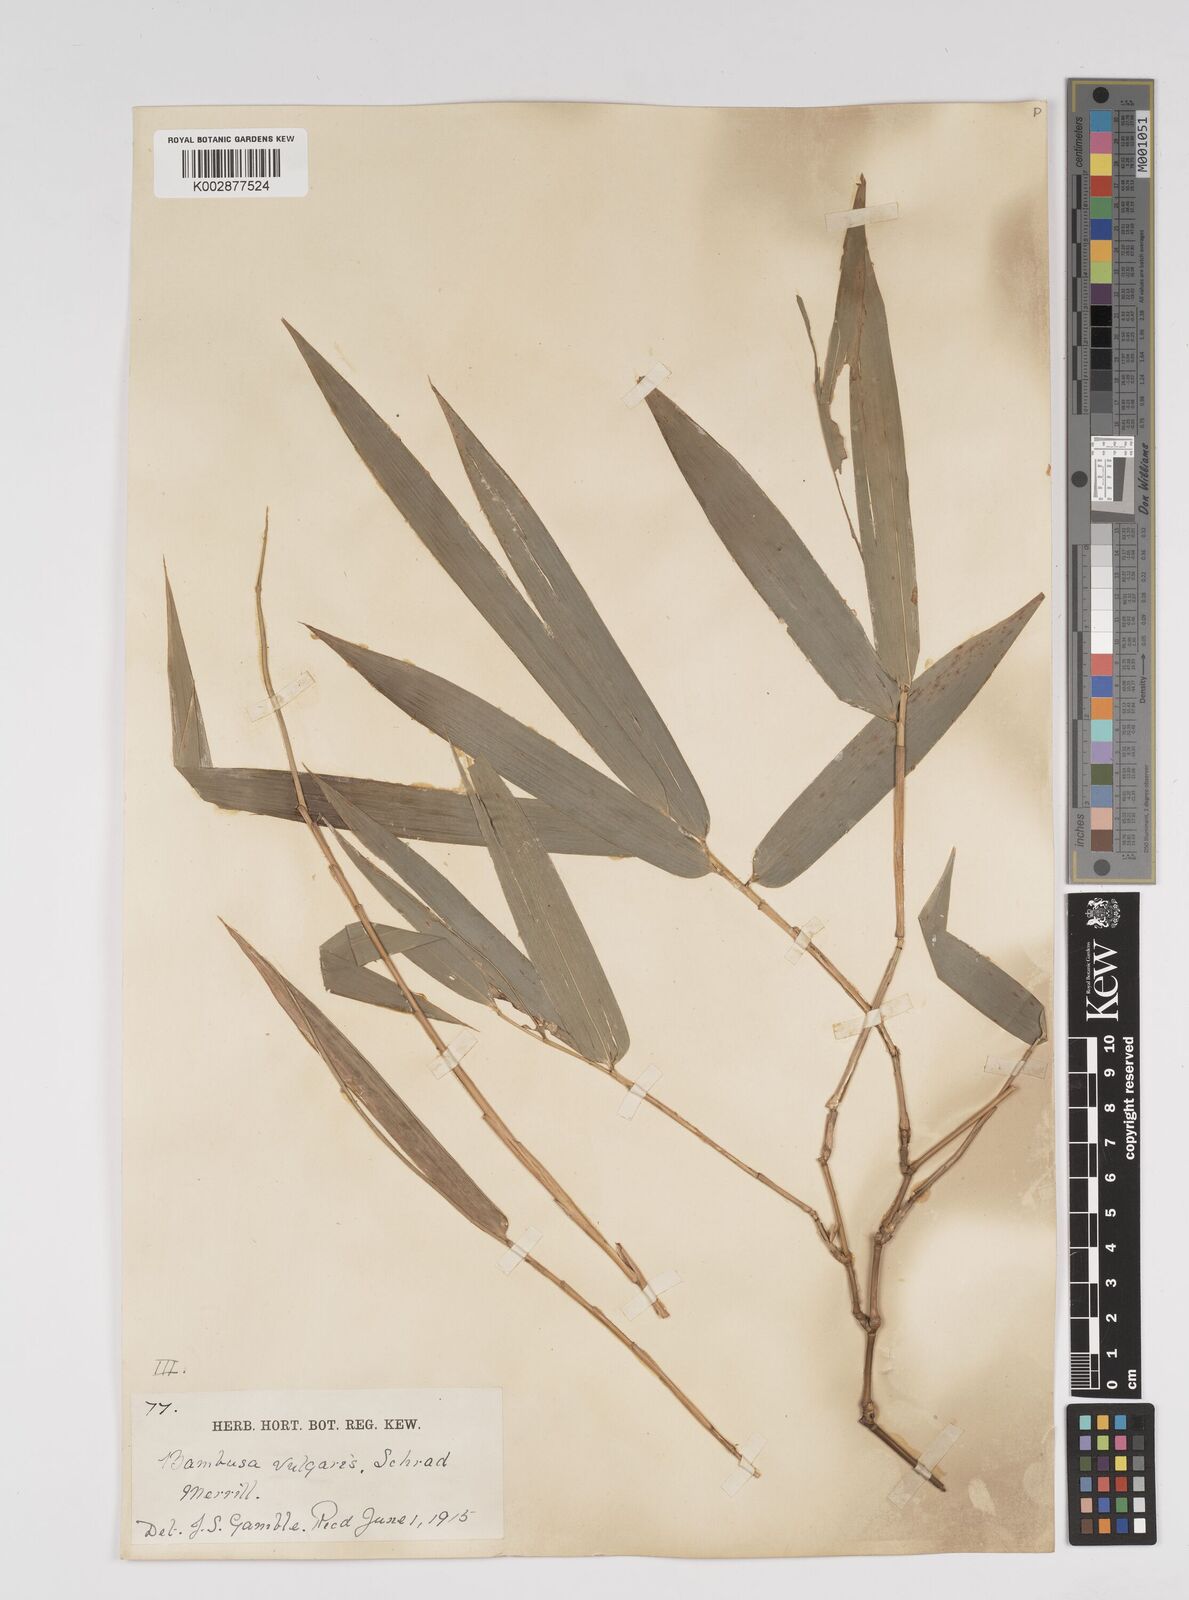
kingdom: Plantae
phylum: Tracheophyta
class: Liliopsida
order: Poales
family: Poaceae
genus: Bambusa
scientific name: Bambusa vulgaris
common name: Common bamboo
